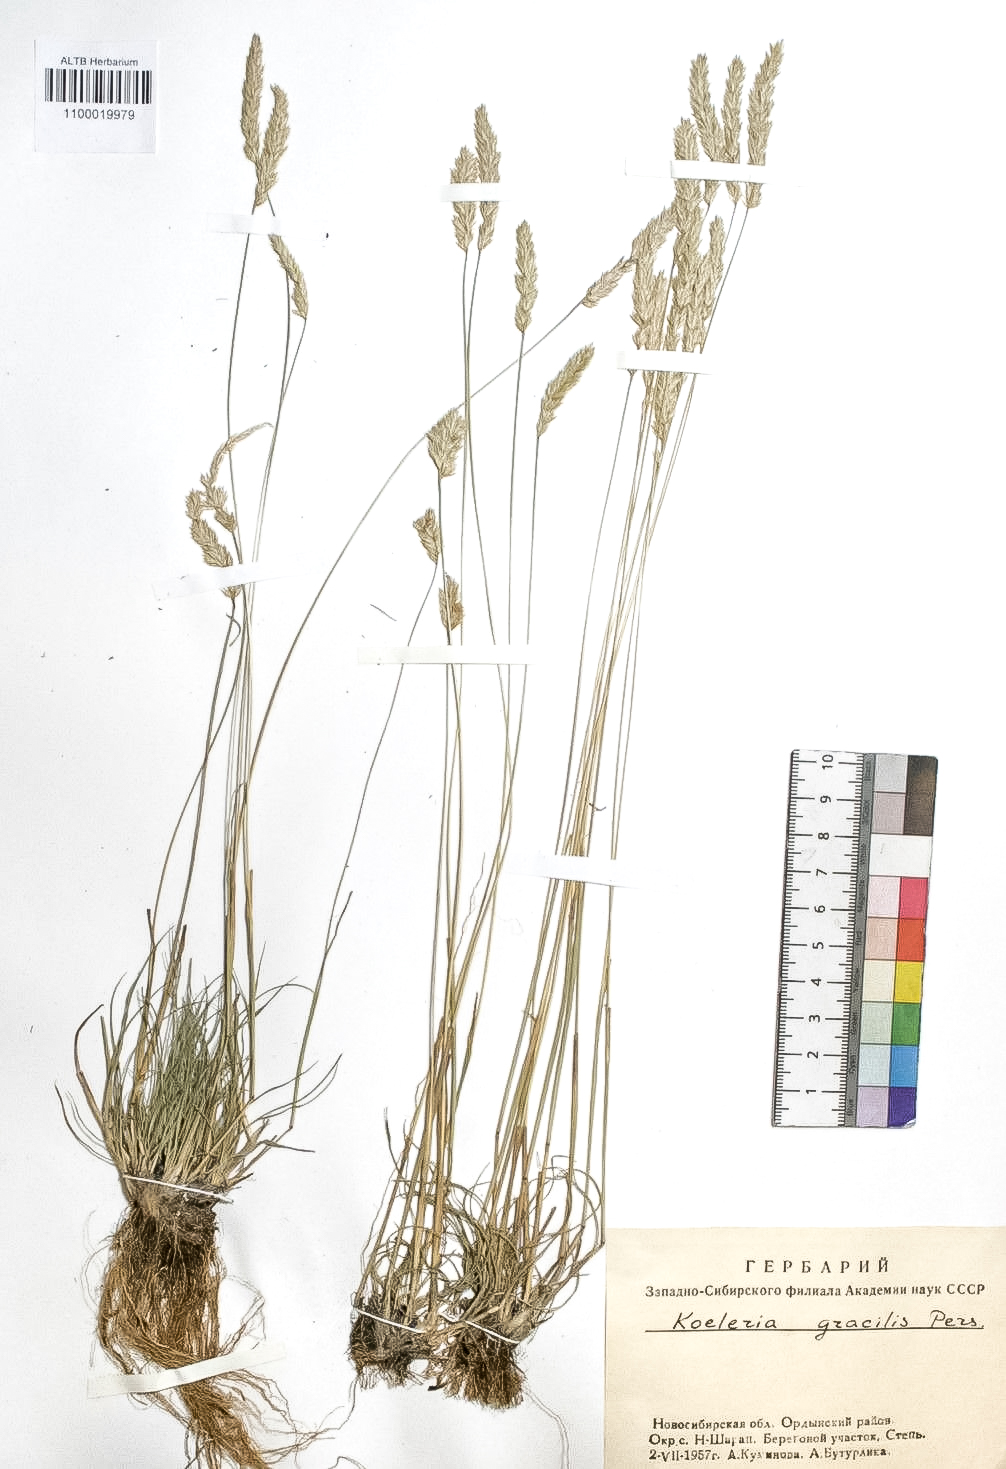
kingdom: Plantae
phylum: Tracheophyta
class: Liliopsida
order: Poales
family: Poaceae
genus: Koeleria
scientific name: Koeleria macrantha
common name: Crested hair-grass
